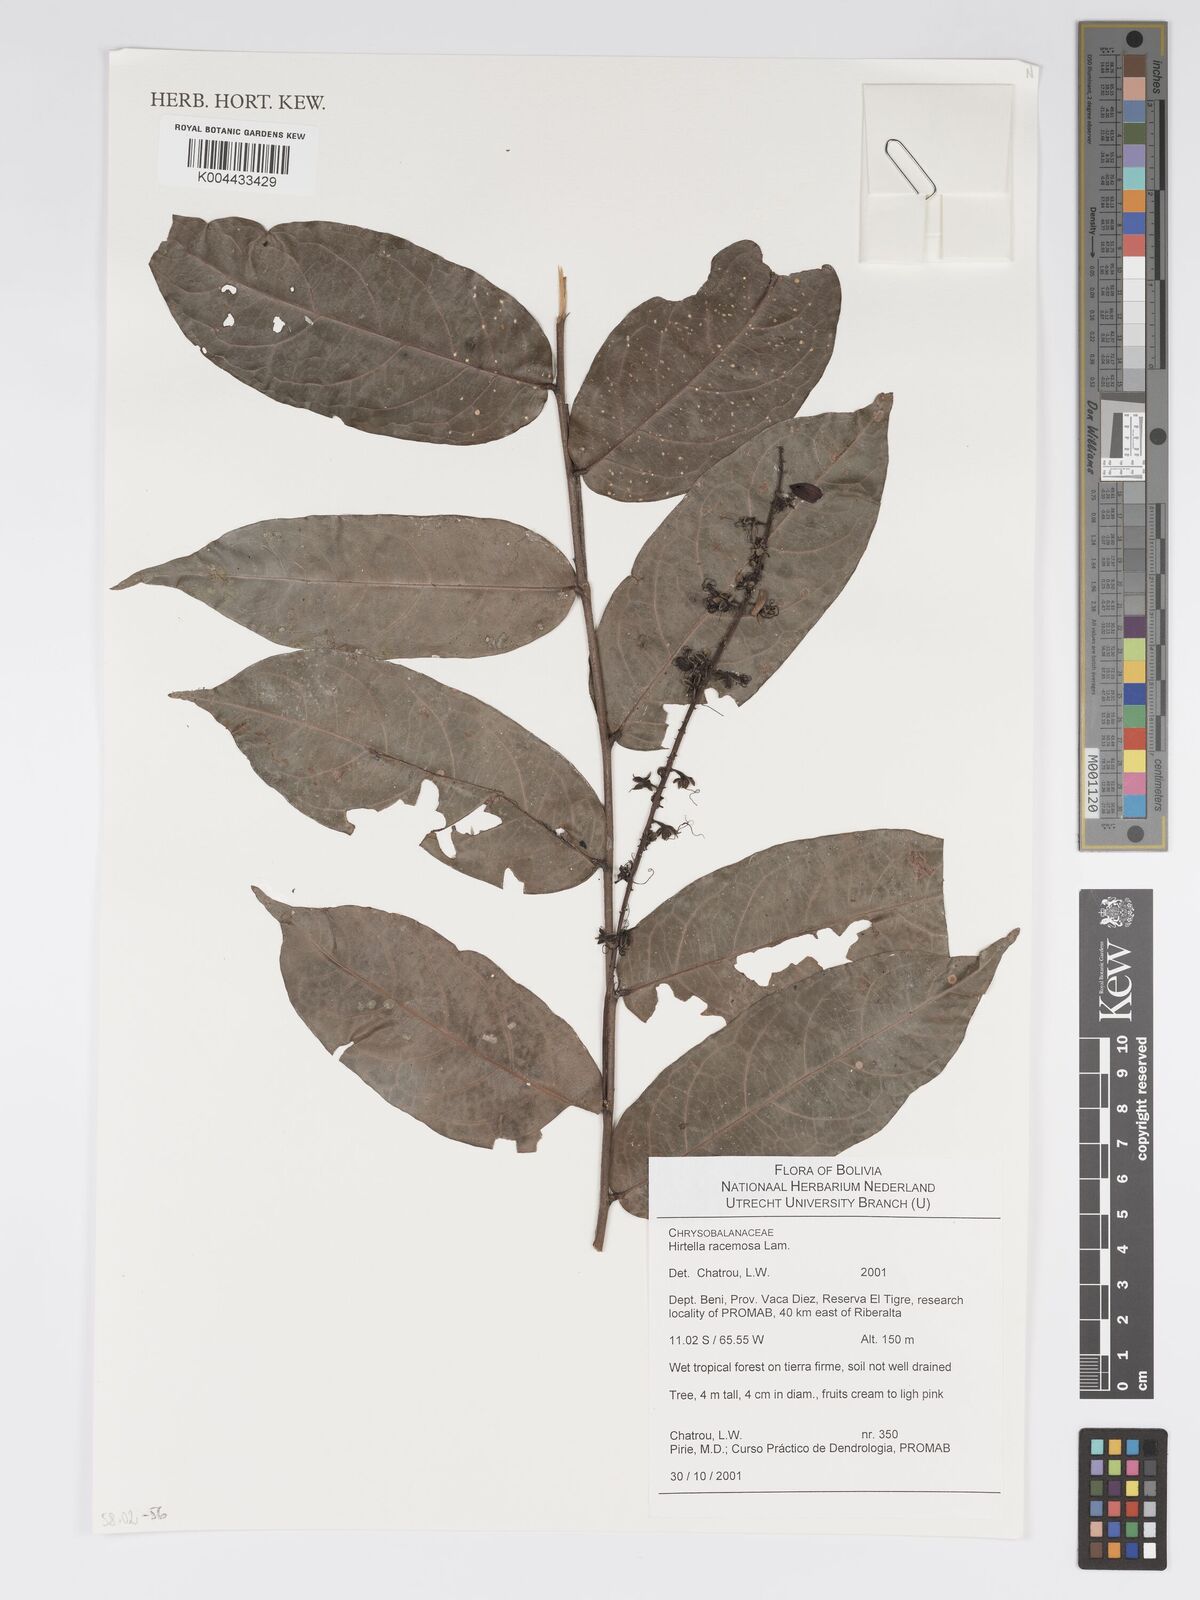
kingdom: Plantae
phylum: Tracheophyta
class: Magnoliopsida
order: Malpighiales
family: Chrysobalanaceae
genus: Hirtella
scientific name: Hirtella racemosa
